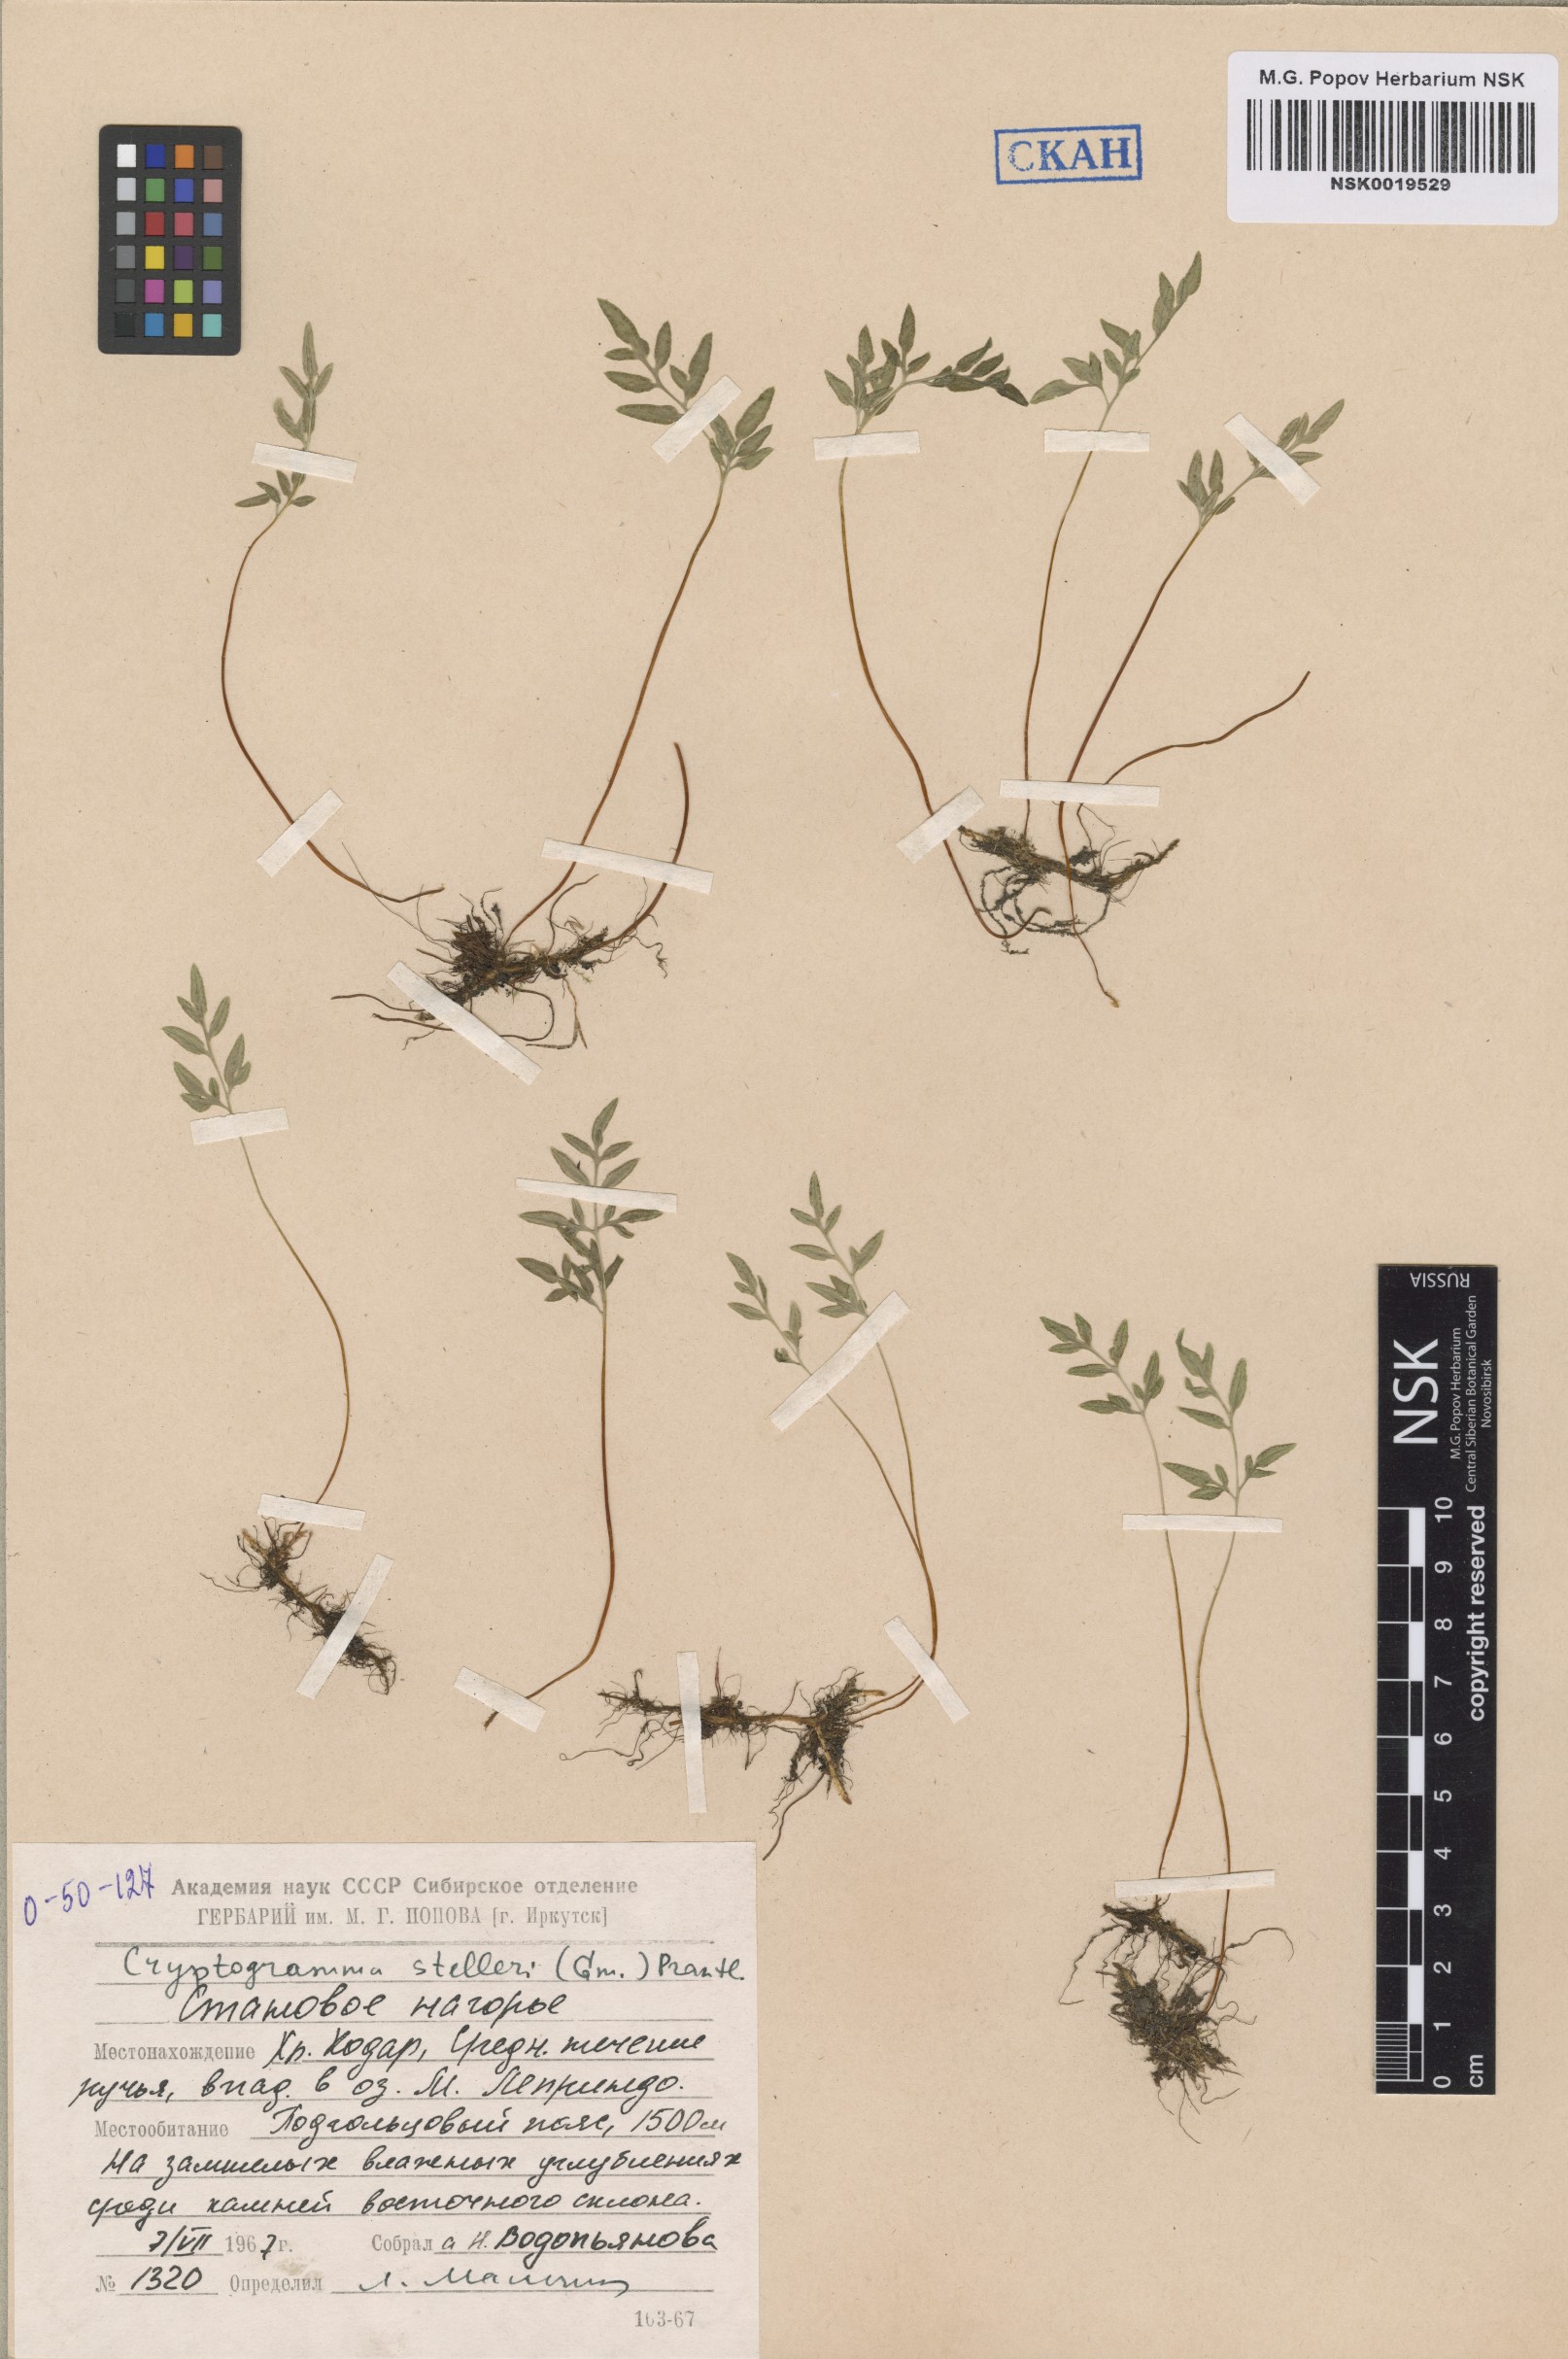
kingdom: Plantae
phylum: Tracheophyta
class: Polypodiopsida
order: Polypodiales
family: Pteridaceae
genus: Cryptogramma
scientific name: Cryptogramma stelleri
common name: Cliff-brake
